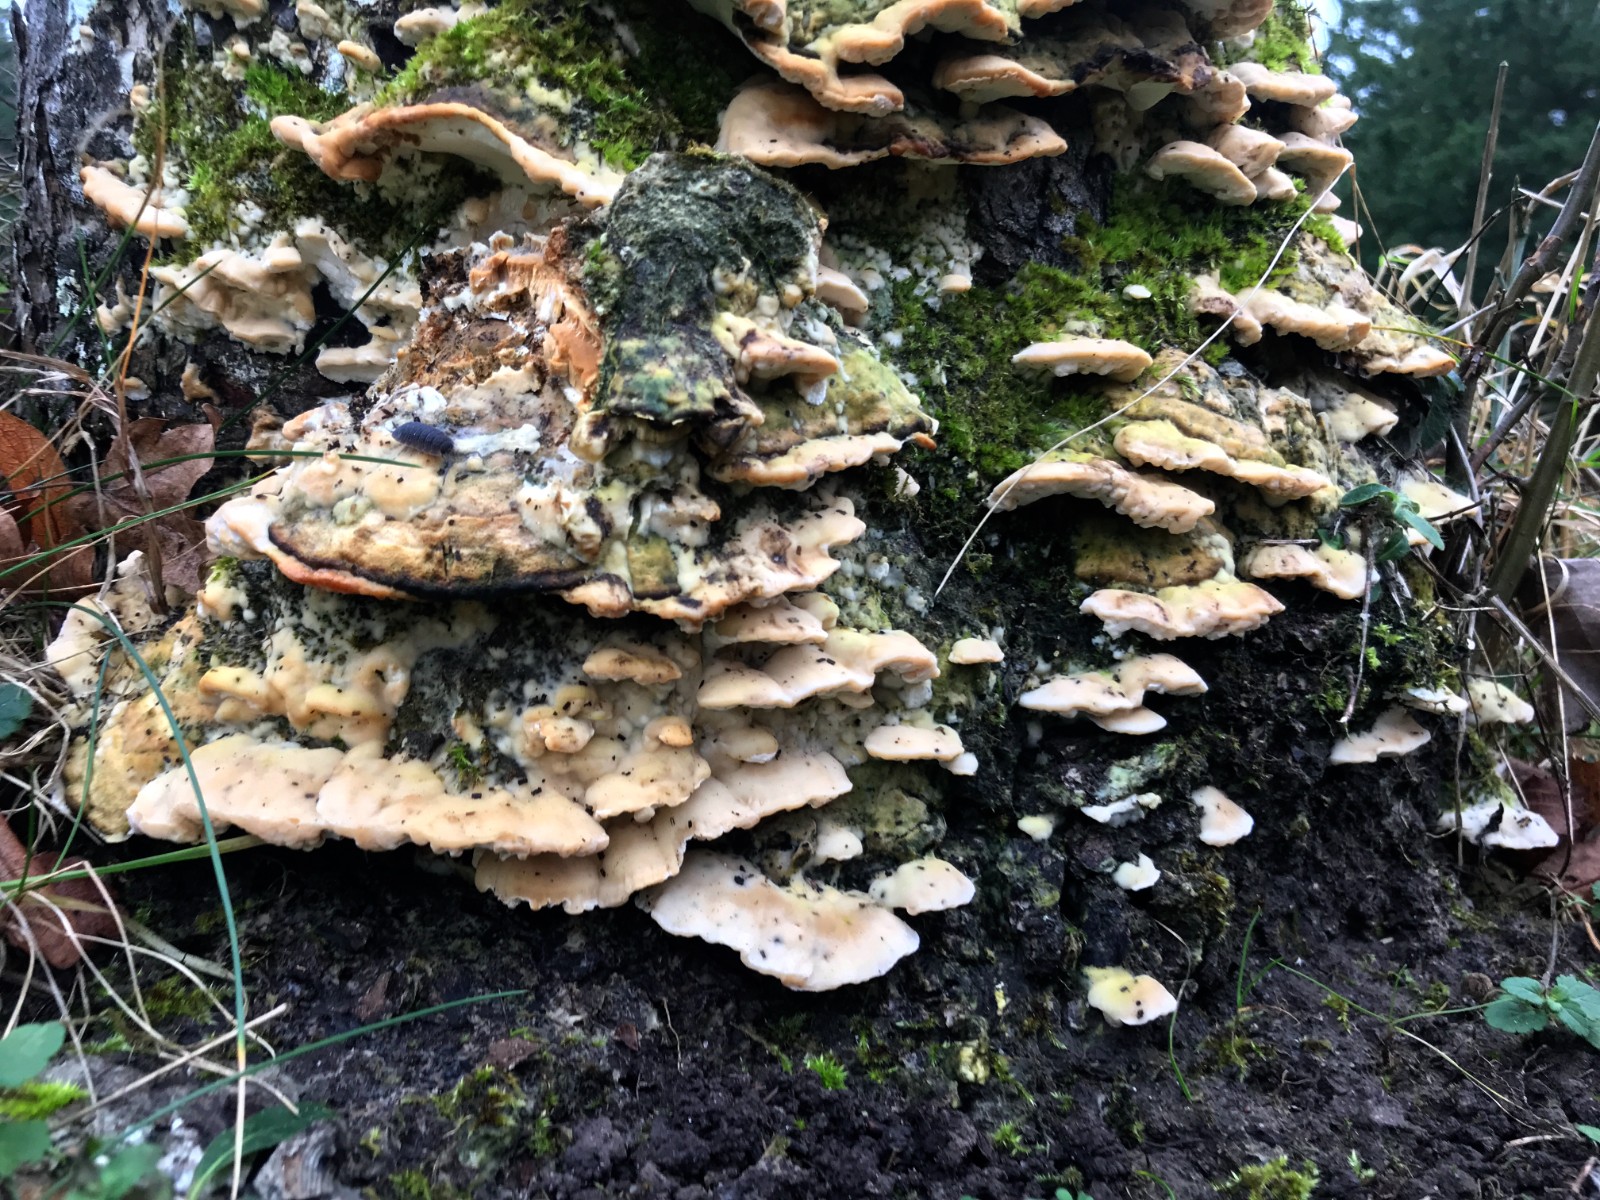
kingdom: Fungi
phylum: Basidiomycota
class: Agaricomycetes
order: Hymenochaetales
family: Oxyporaceae
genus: Oxyporus
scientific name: Oxyporus populinus
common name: sammenvokset trylleporesvamp
